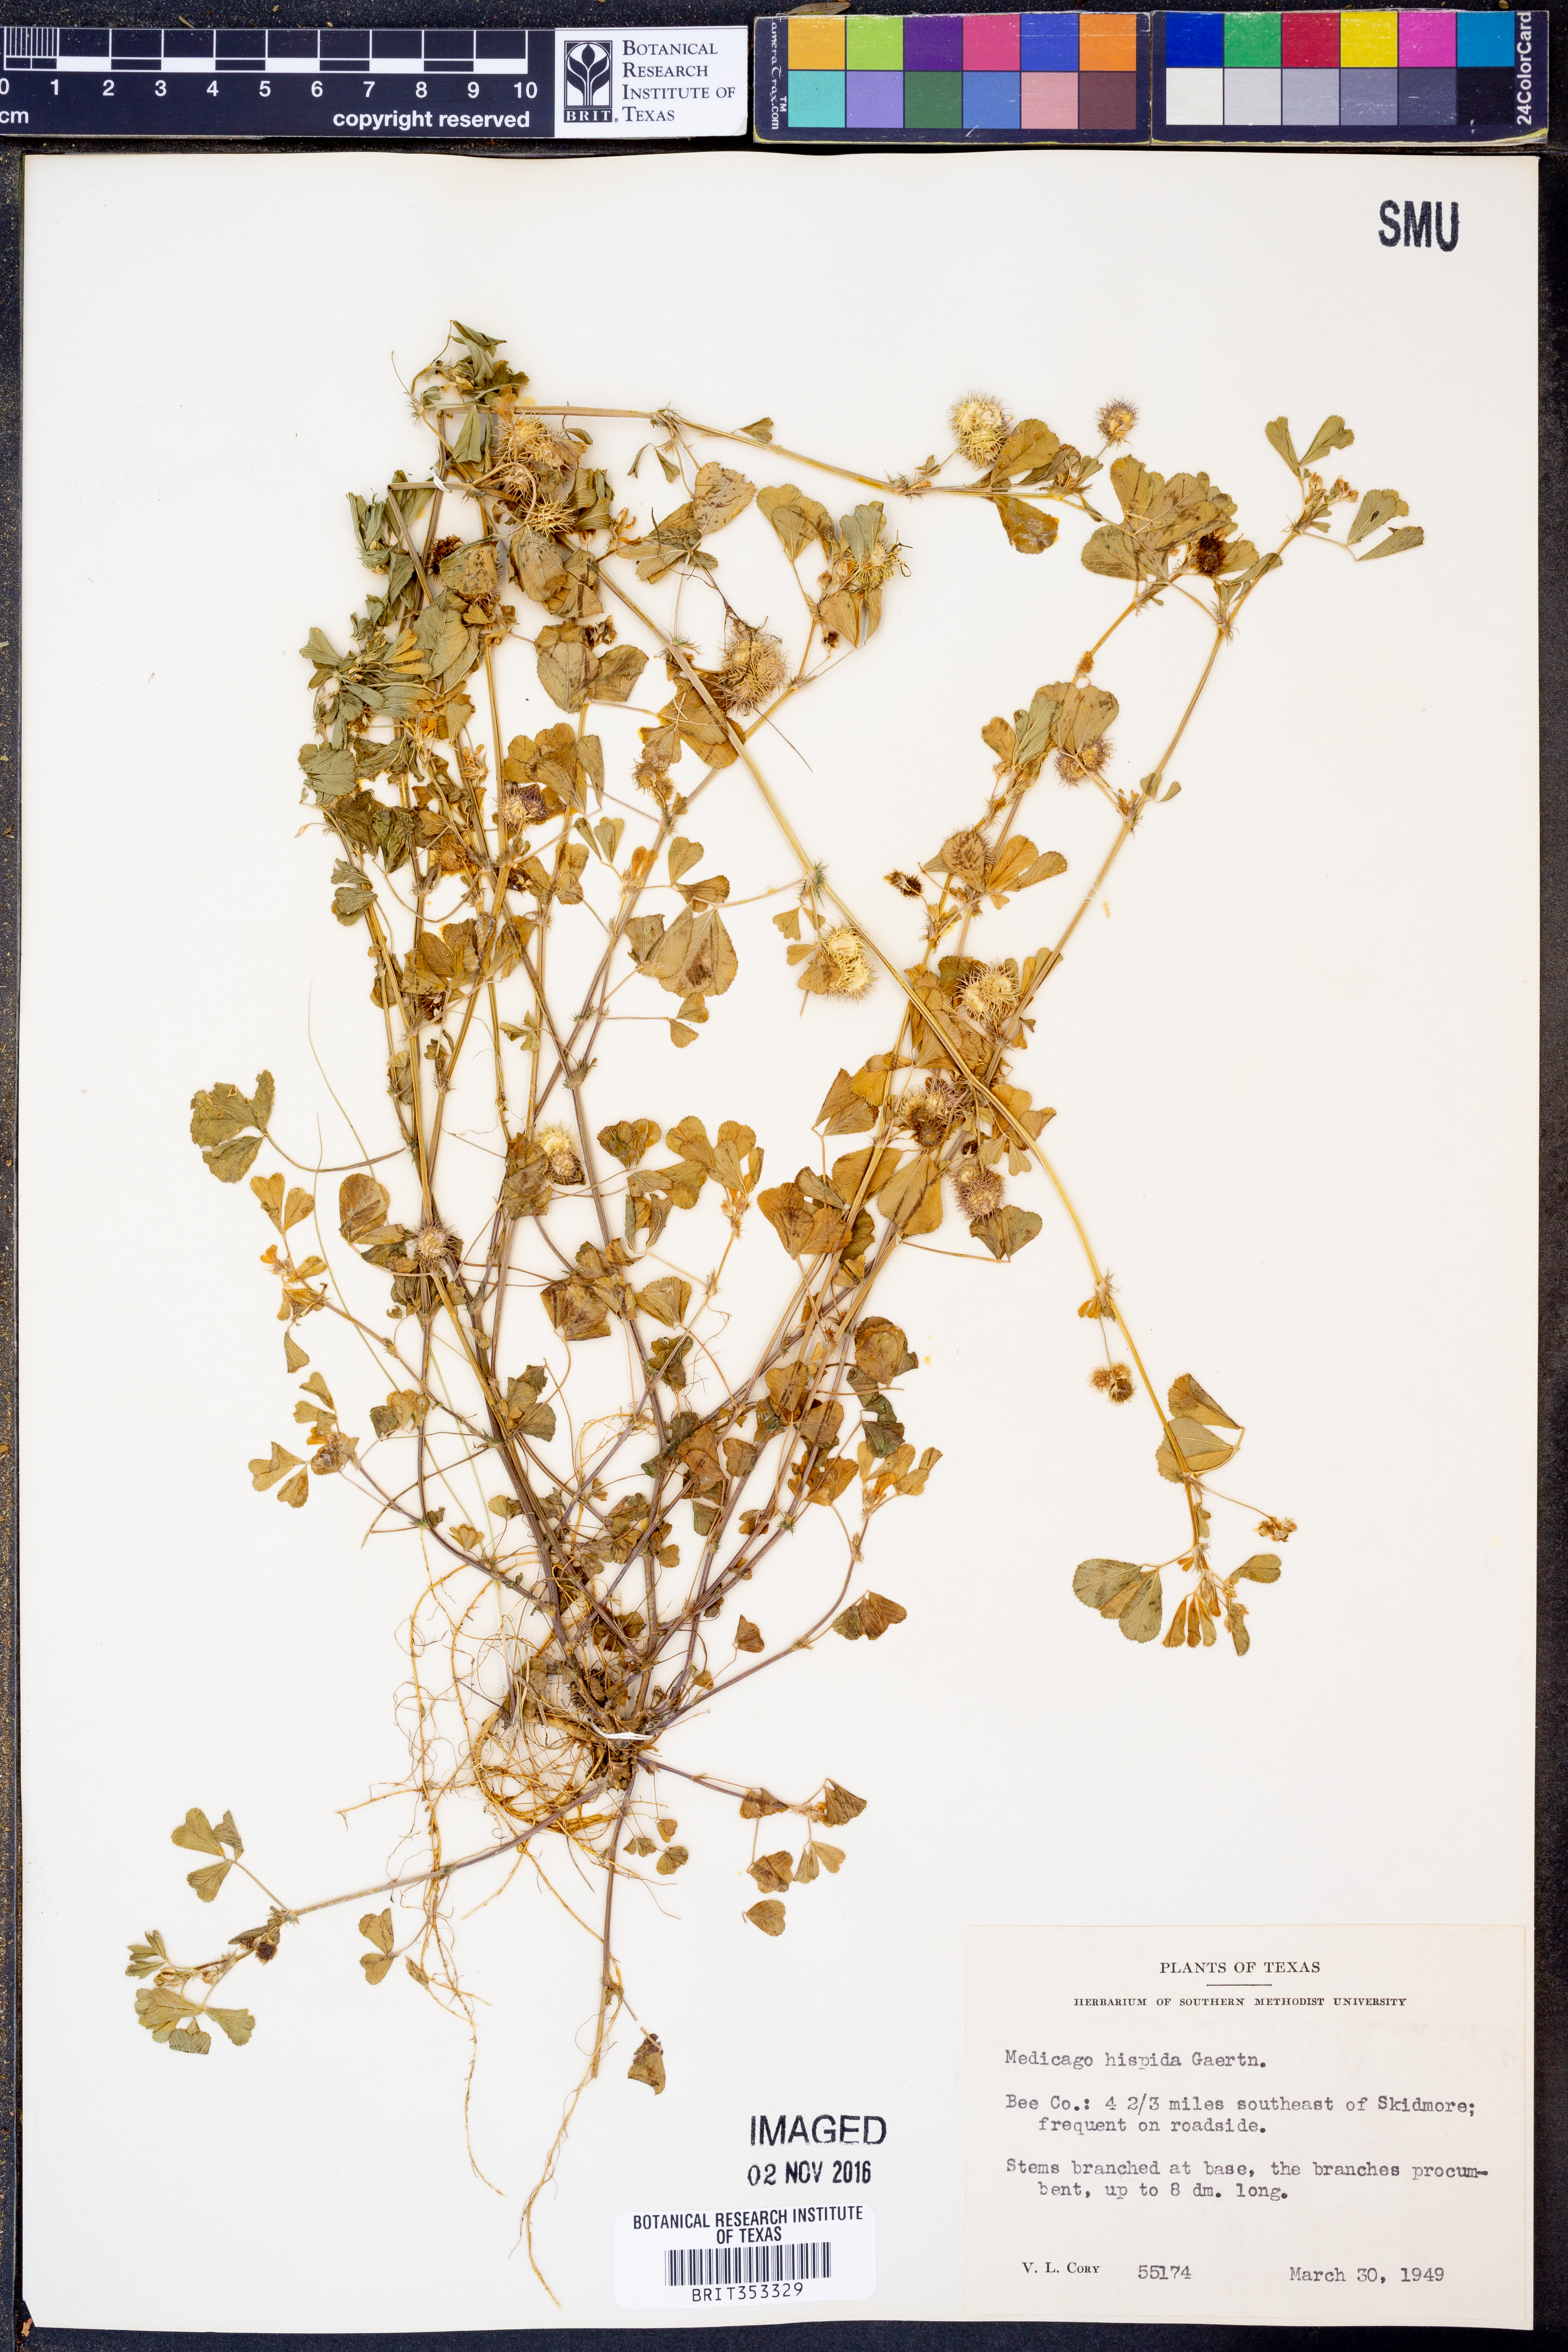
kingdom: Plantae
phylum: Tracheophyta
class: Magnoliopsida
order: Fabales
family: Fabaceae
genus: Medicago
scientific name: Medicago polymorpha
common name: Burclover
